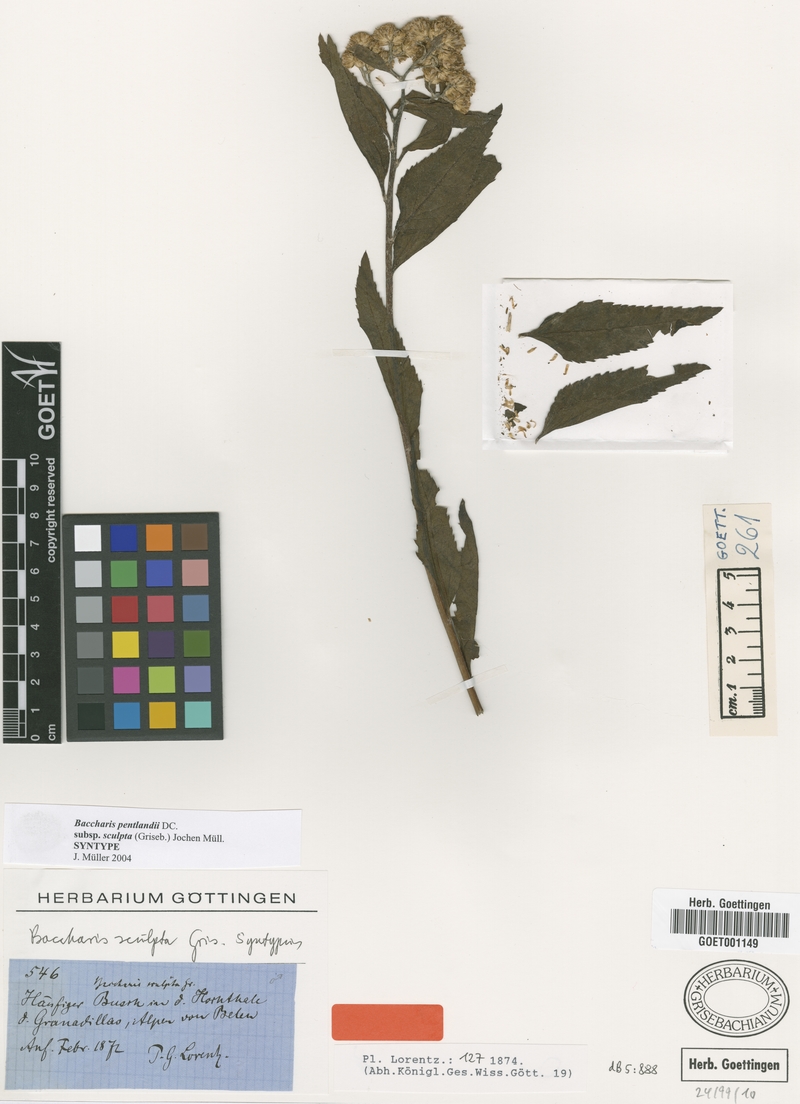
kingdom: Plantae
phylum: Tracheophyta
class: Magnoliopsida
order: Asterales
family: Asteraceae
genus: Baccharis
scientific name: Baccharis pentlandii
